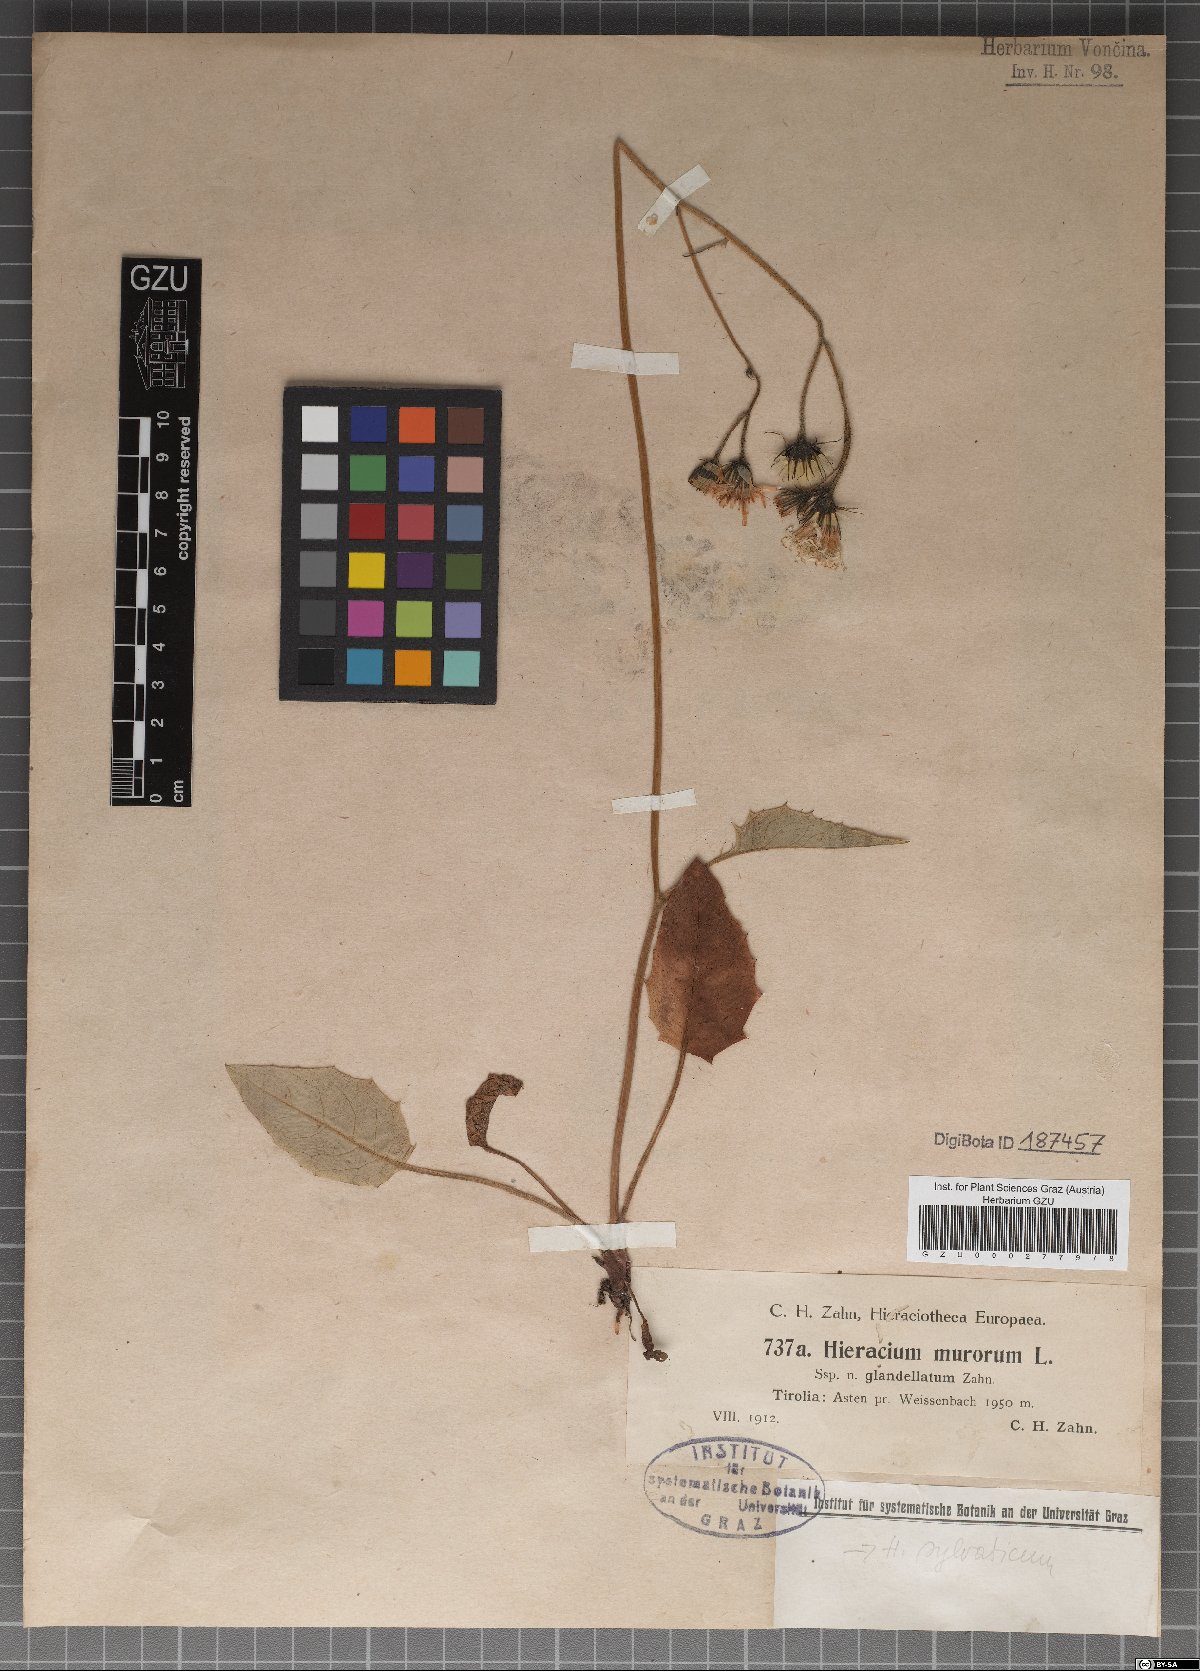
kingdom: Plantae
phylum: Tracheophyta
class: Magnoliopsida
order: Asterales
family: Asteraceae
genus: Hieracium
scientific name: Hieracium murorum
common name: Wall hawkweed
